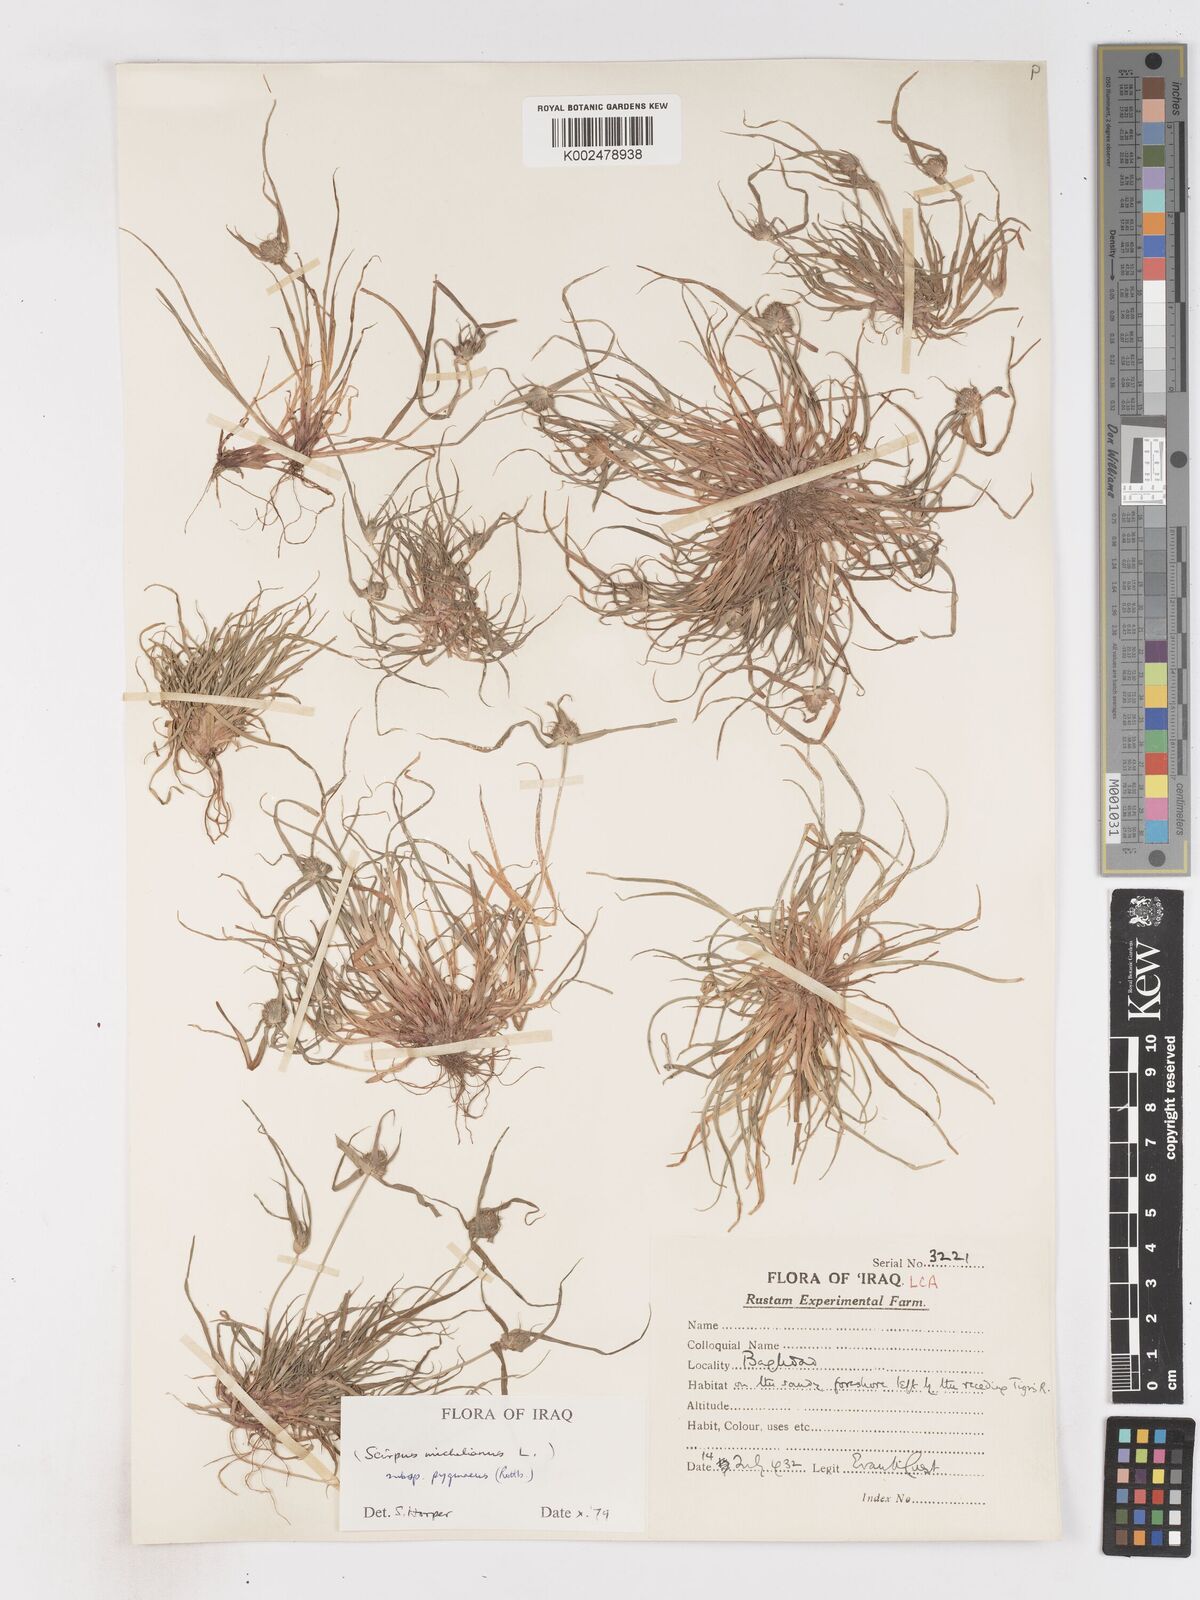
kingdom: Plantae
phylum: Tracheophyta
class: Liliopsida
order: Poales
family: Cyperaceae
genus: Cyperus
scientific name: Cyperus michelianus
